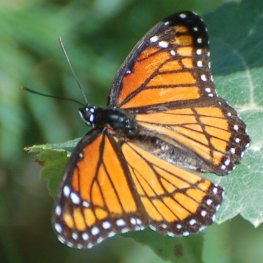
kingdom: Animalia
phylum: Arthropoda
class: Insecta
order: Lepidoptera
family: Nymphalidae
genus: Limenitis
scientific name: Limenitis archippus
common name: Viceroy
